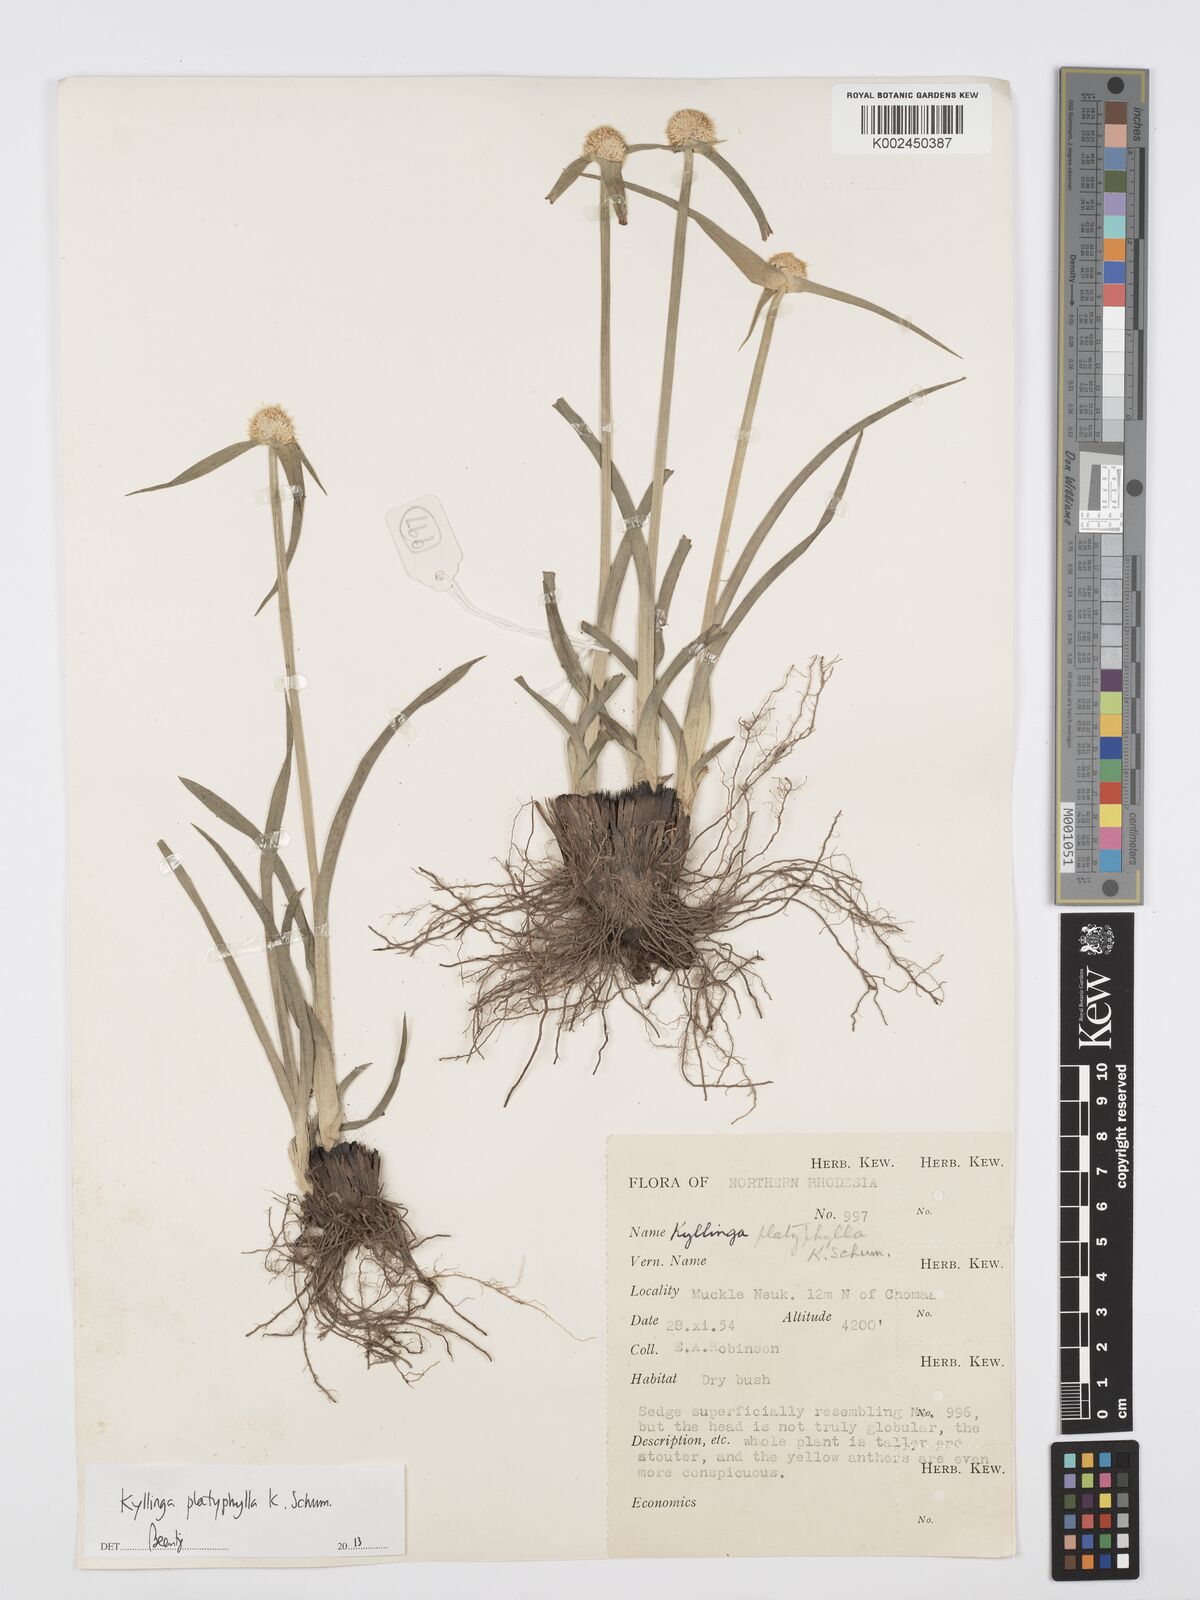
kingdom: Plantae
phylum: Tracheophyta
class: Liliopsida
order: Poales
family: Cyperaceae
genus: Cyperus
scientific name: Cyperus
